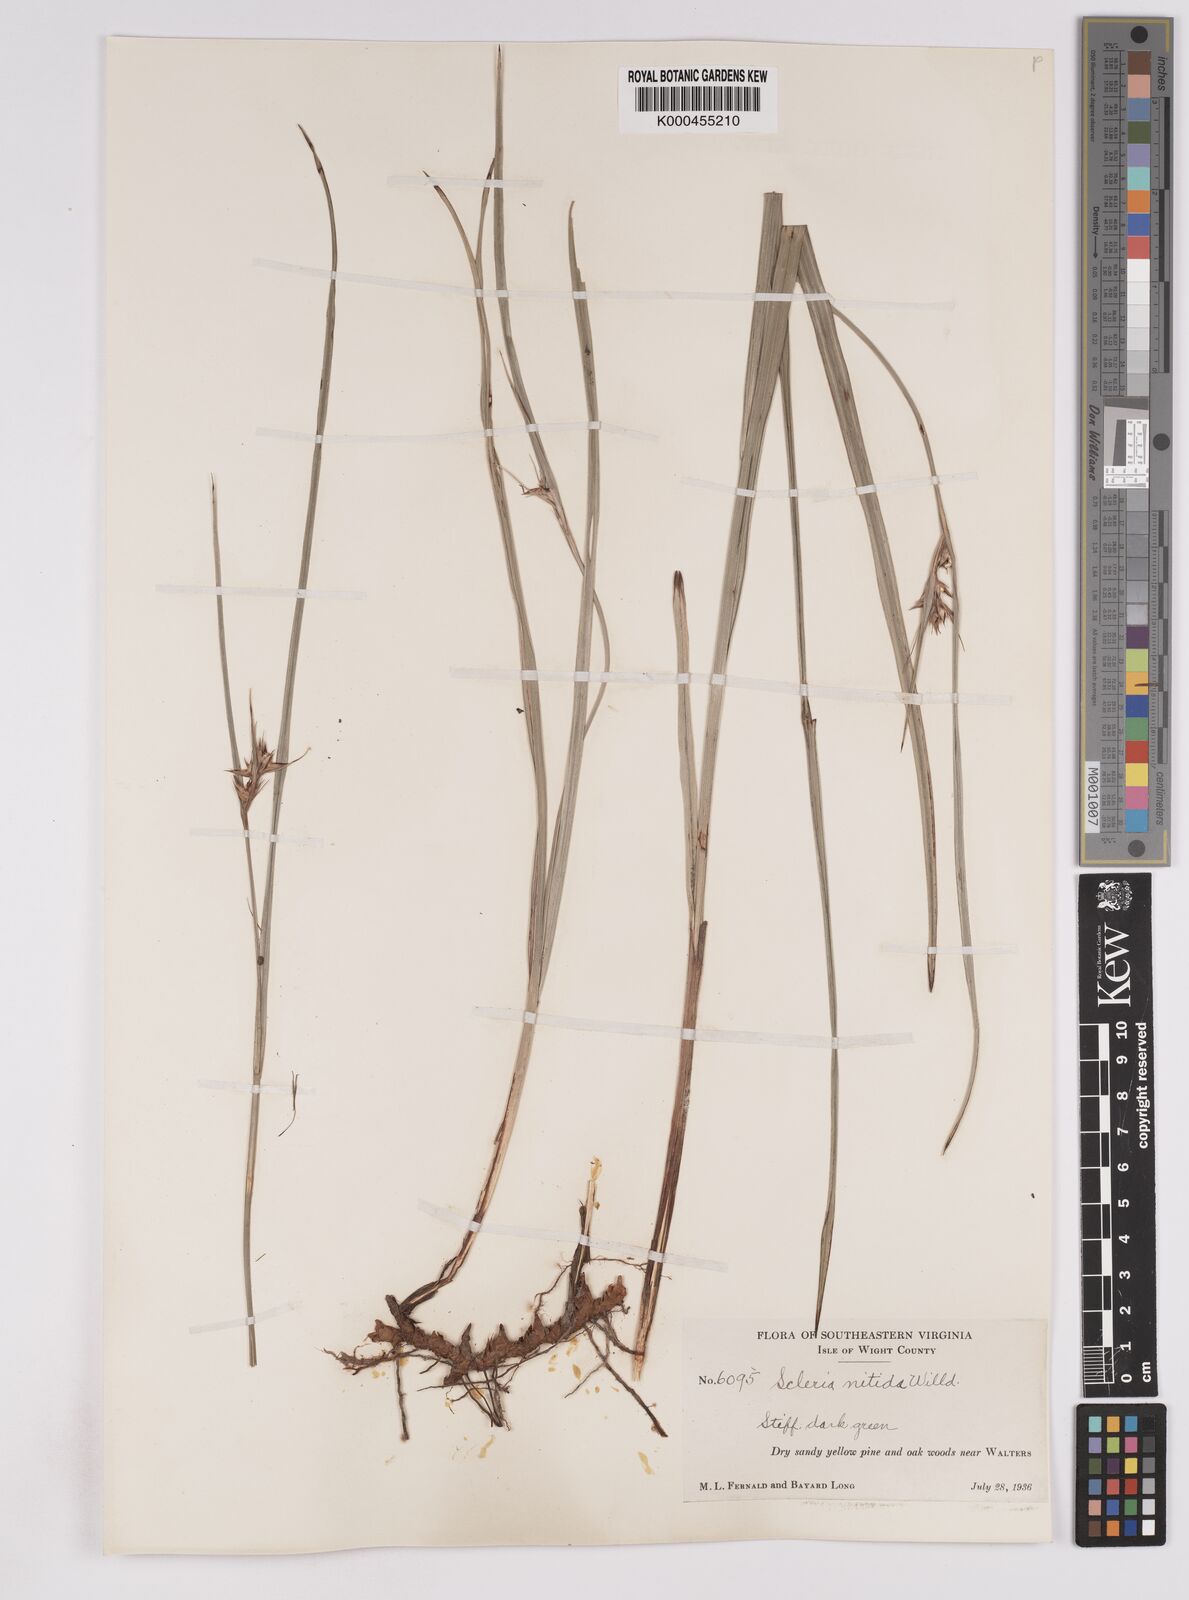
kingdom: Plantae
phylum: Tracheophyta
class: Liliopsida
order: Poales
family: Cyperaceae
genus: Scleria
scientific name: Scleria triglomerata
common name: Whip nutrush
